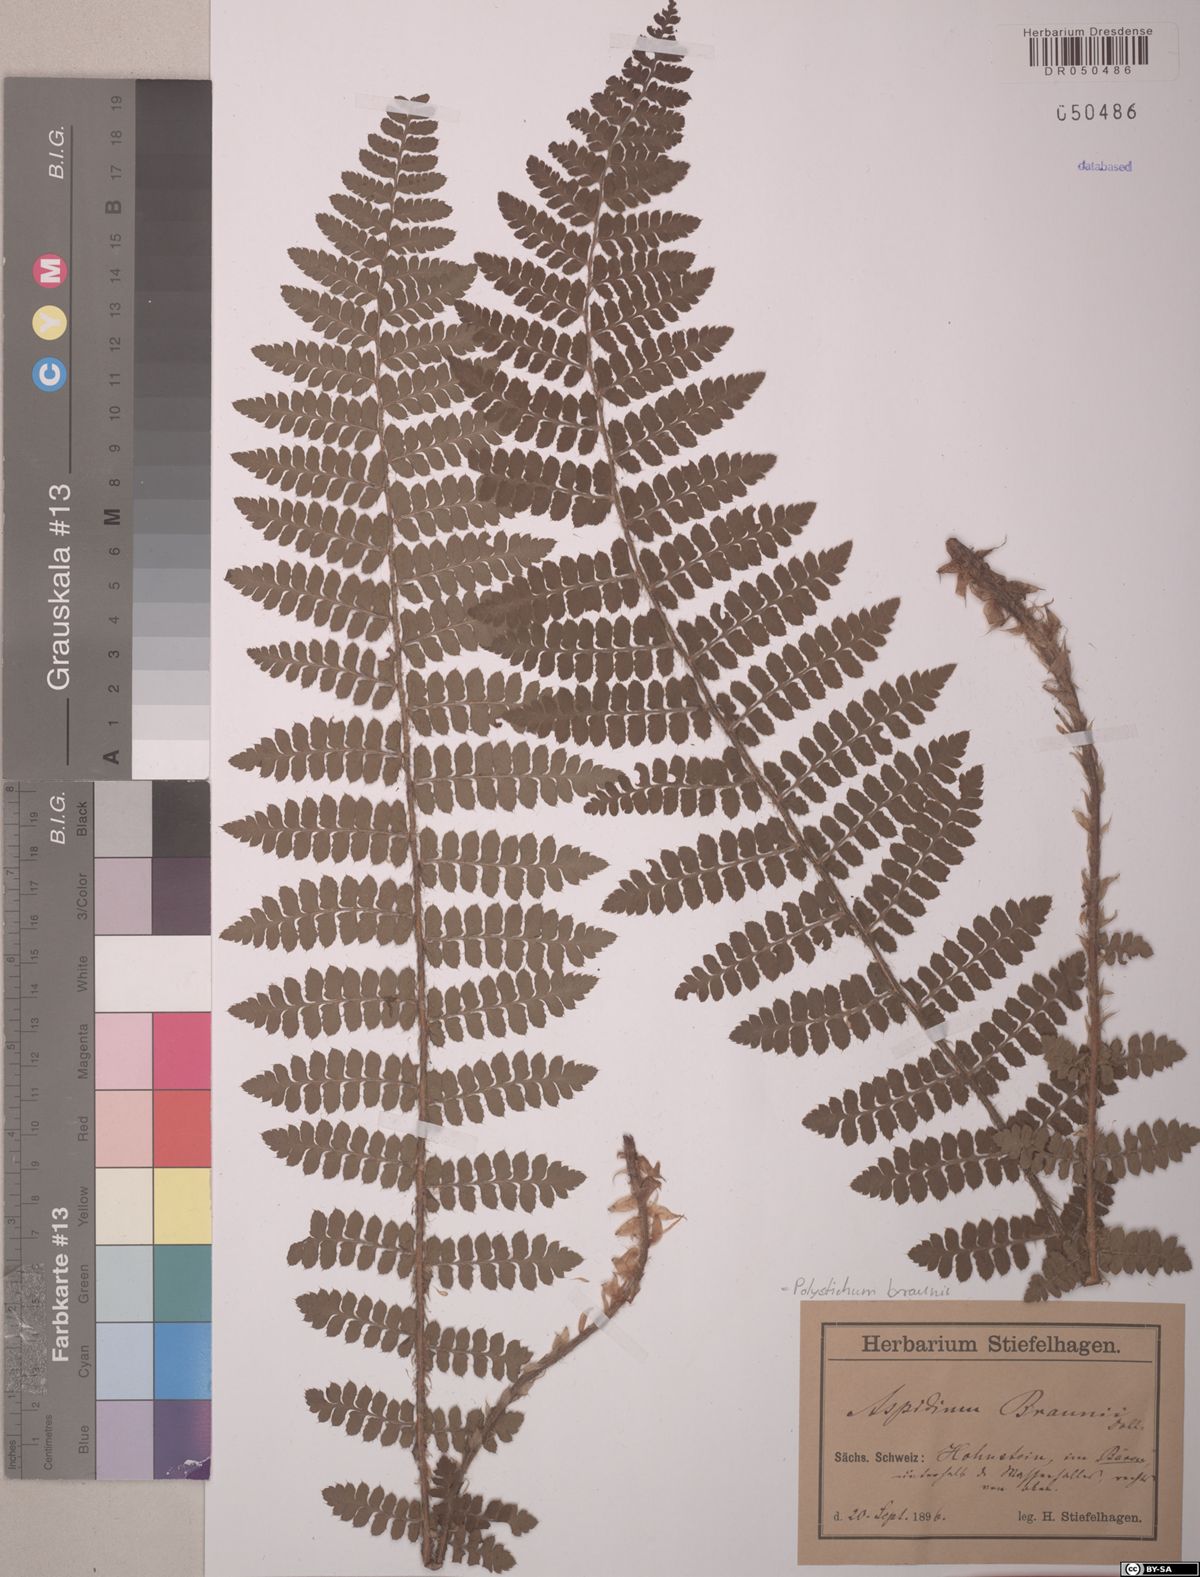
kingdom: Plantae
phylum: Tracheophyta
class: Polypodiopsida
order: Polypodiales
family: Dryopteridaceae
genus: Polystichum
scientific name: Polystichum braunii
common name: Braun's holly fern
